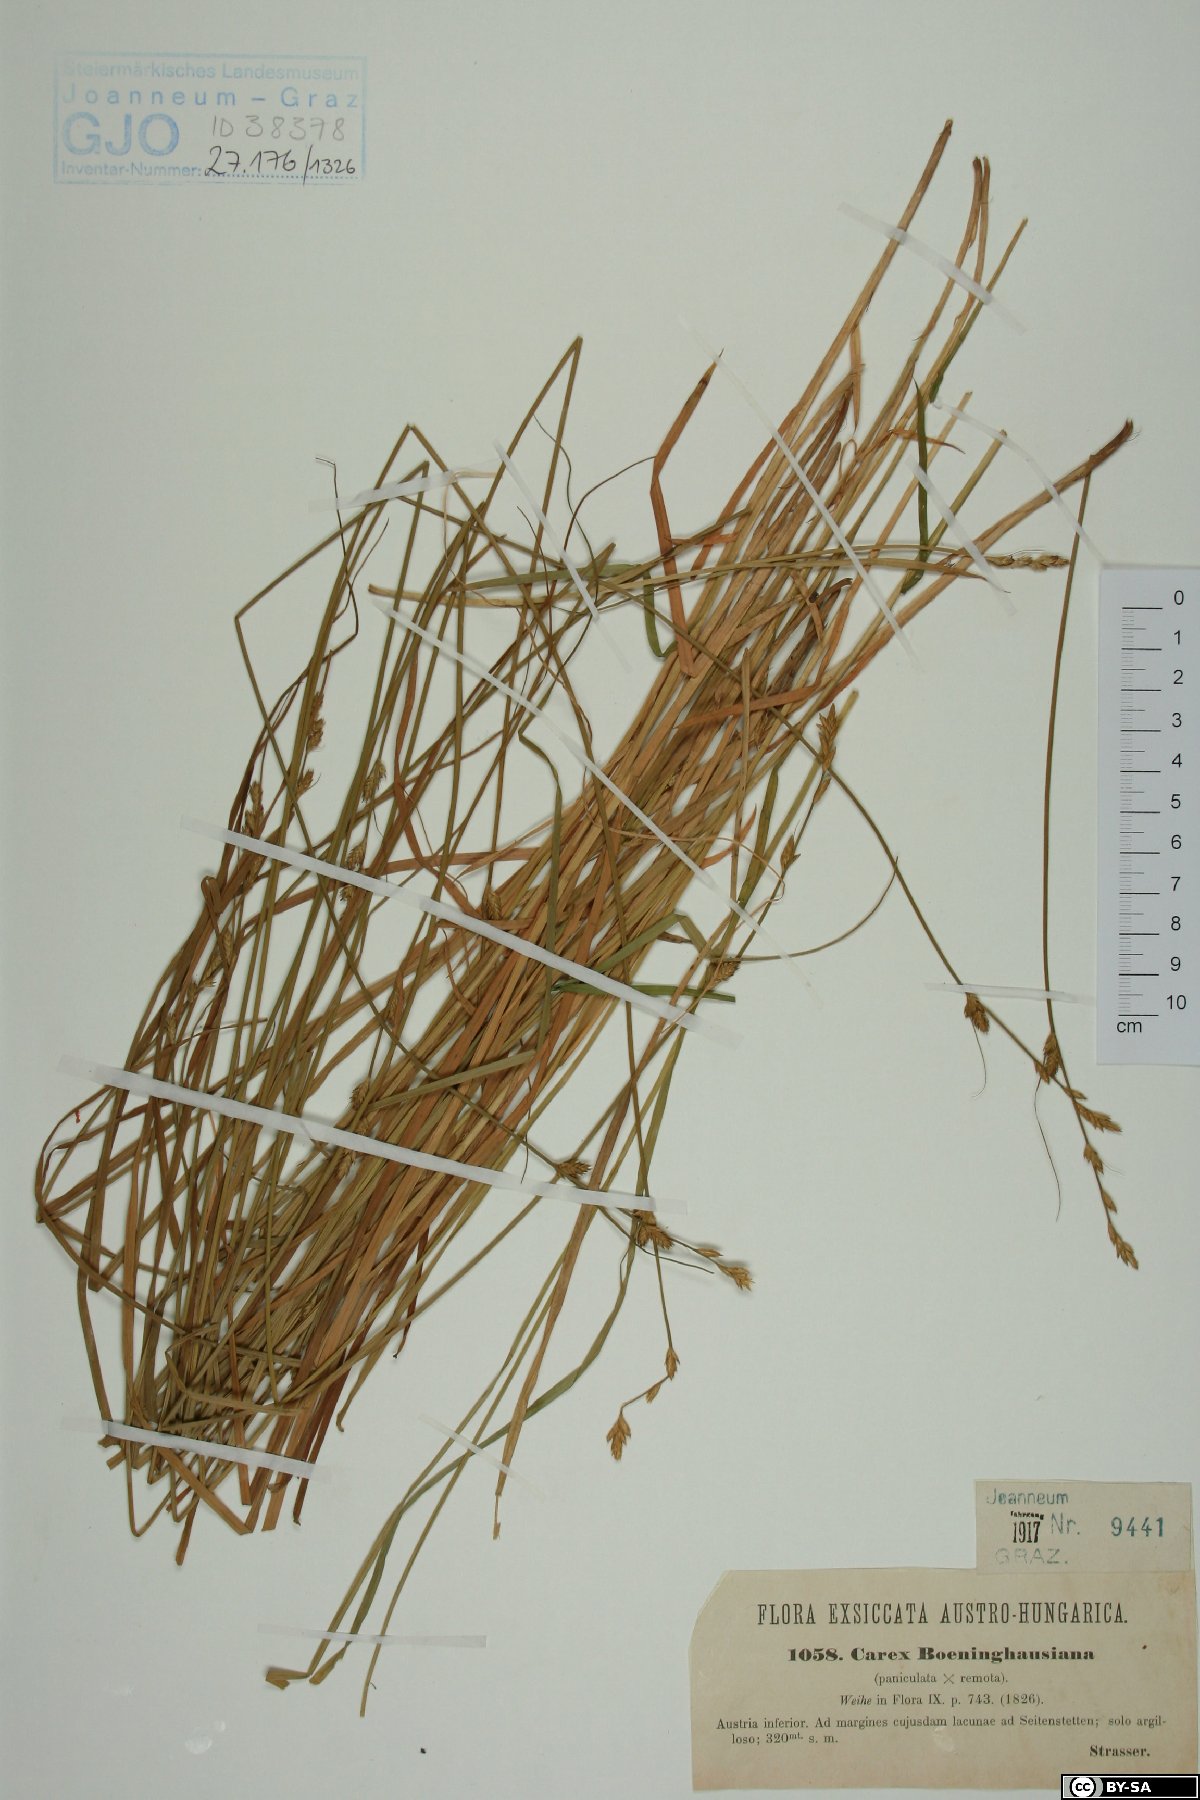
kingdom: Plantae
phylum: Tracheophyta
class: Liliopsida
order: Poales
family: Cyperaceae
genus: Carex
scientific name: Carex boenninghausiana
